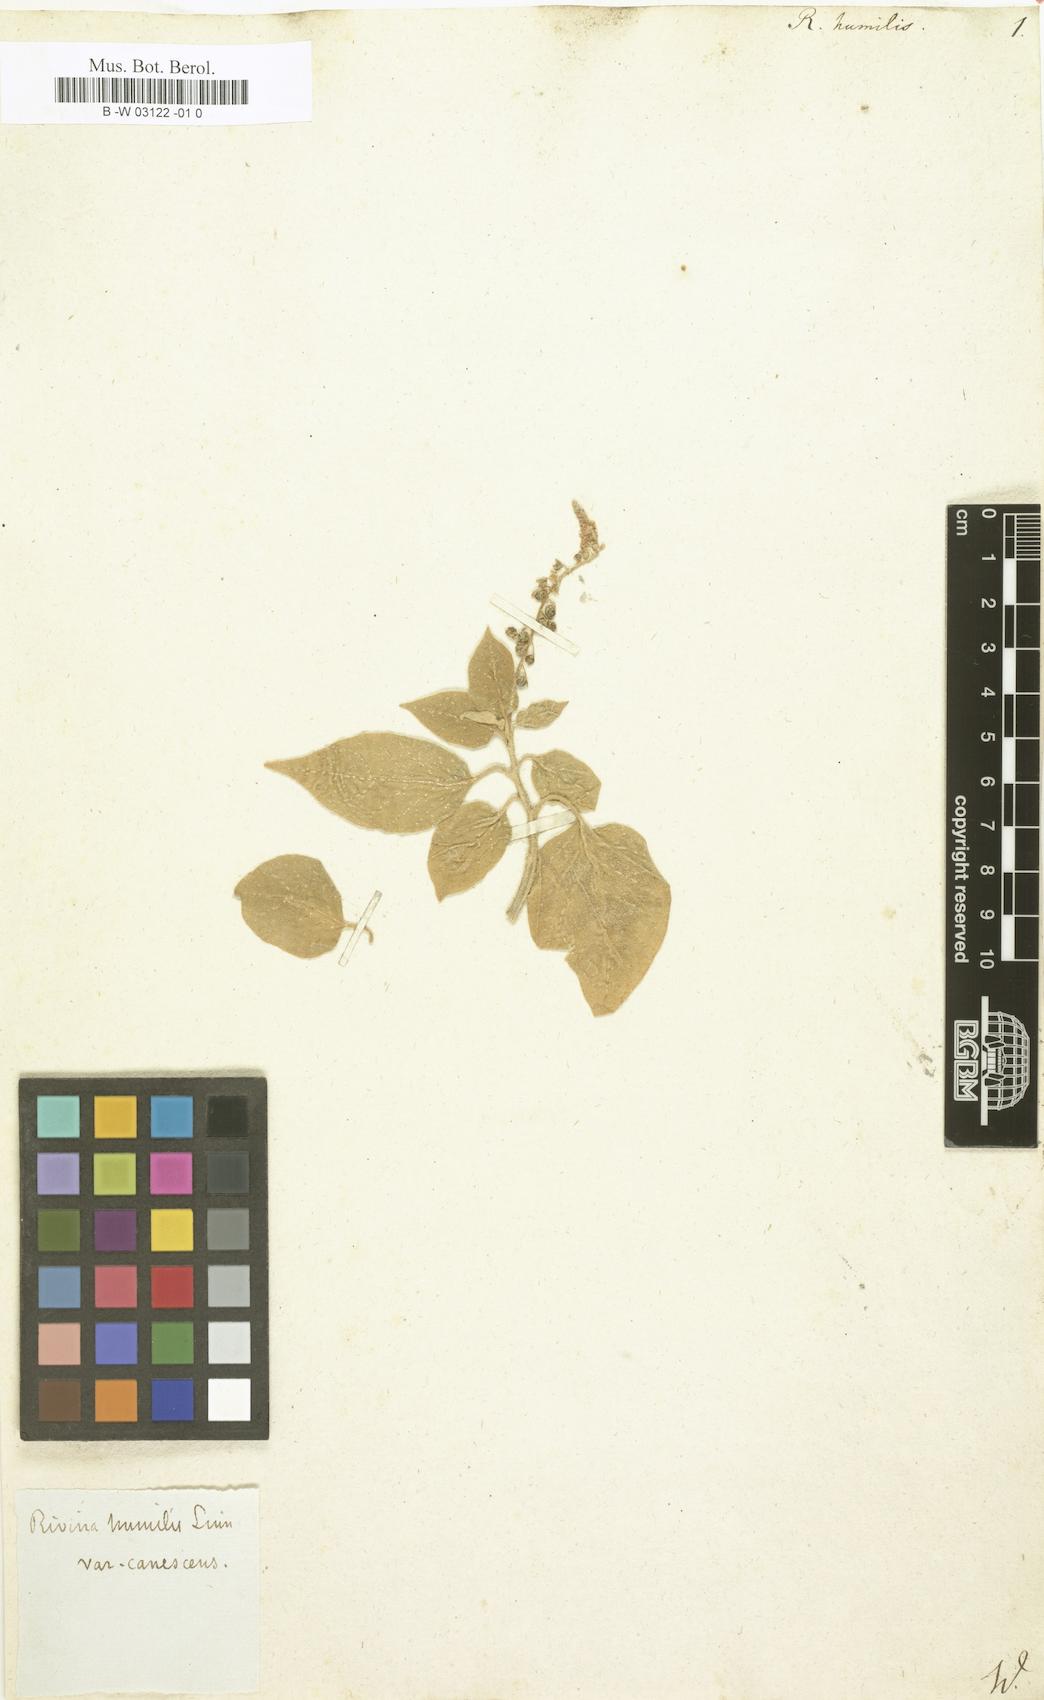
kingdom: Plantae
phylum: Tracheophyta
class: Magnoliopsida
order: Caryophyllales
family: Phytolaccaceae
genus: Rivina
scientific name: Rivina humilis
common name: Rougeplant
